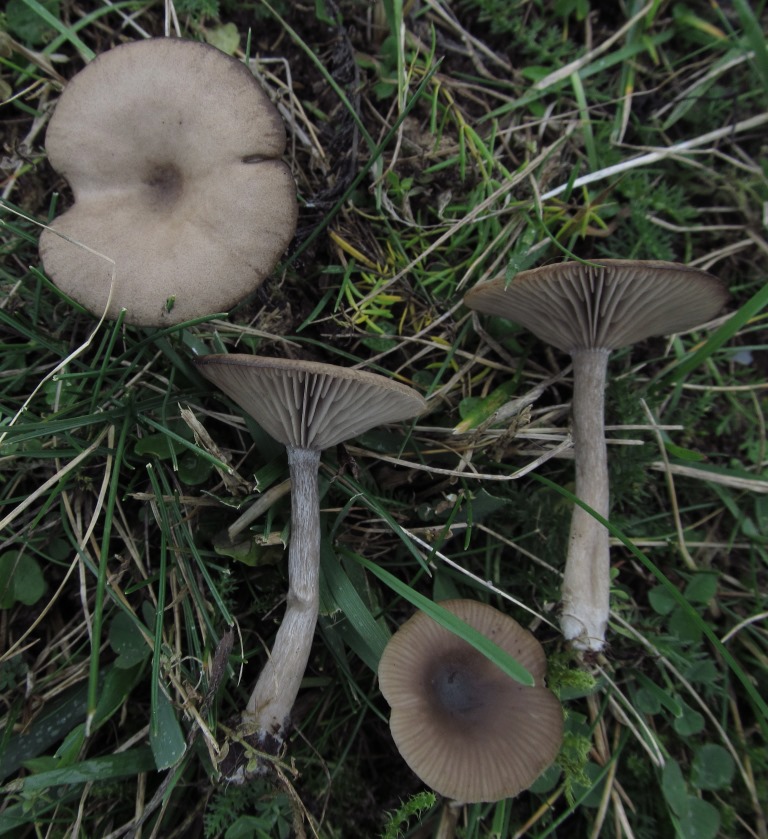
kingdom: Fungi
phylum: Basidiomycota
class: Agaricomycetes
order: Agaricales
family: Pseudoclitocybaceae
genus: Pseudoclitocybe
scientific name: Pseudoclitocybe expallens
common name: lille bægertragthat
